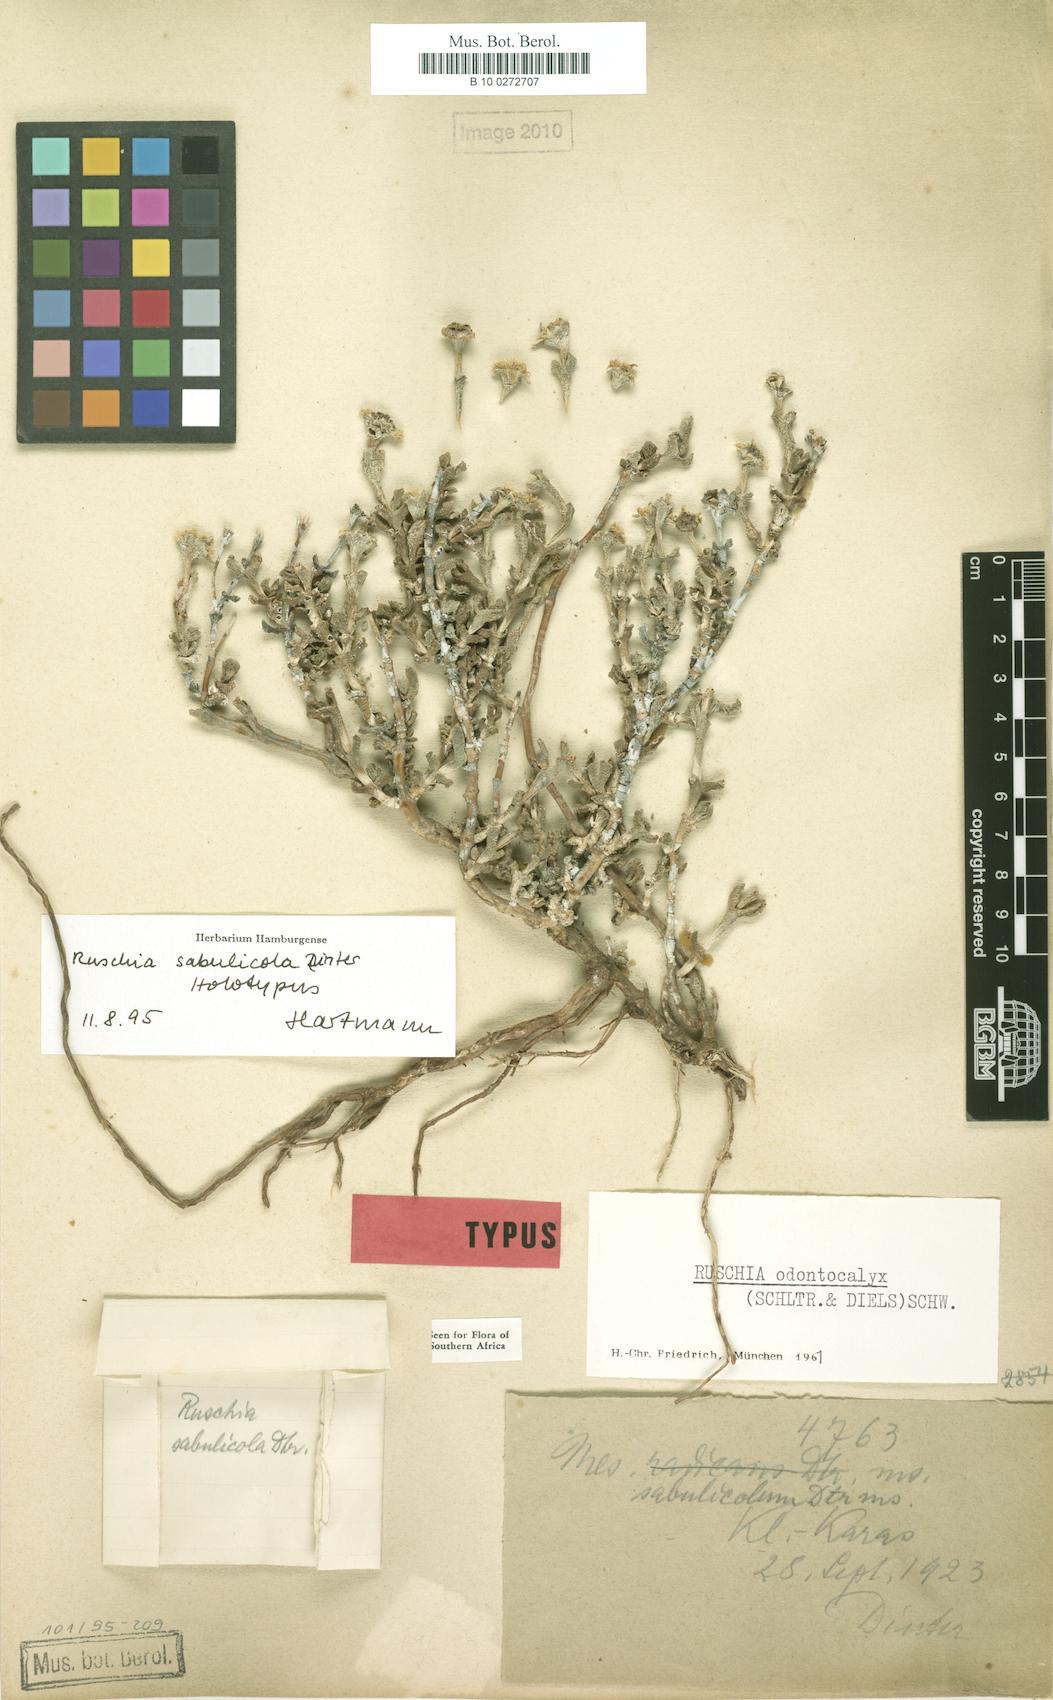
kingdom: Plantae
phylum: Tracheophyta
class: Magnoliopsida
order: Caryophyllales
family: Aizoaceae
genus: Ruschia
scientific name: Ruschia sabulicola
